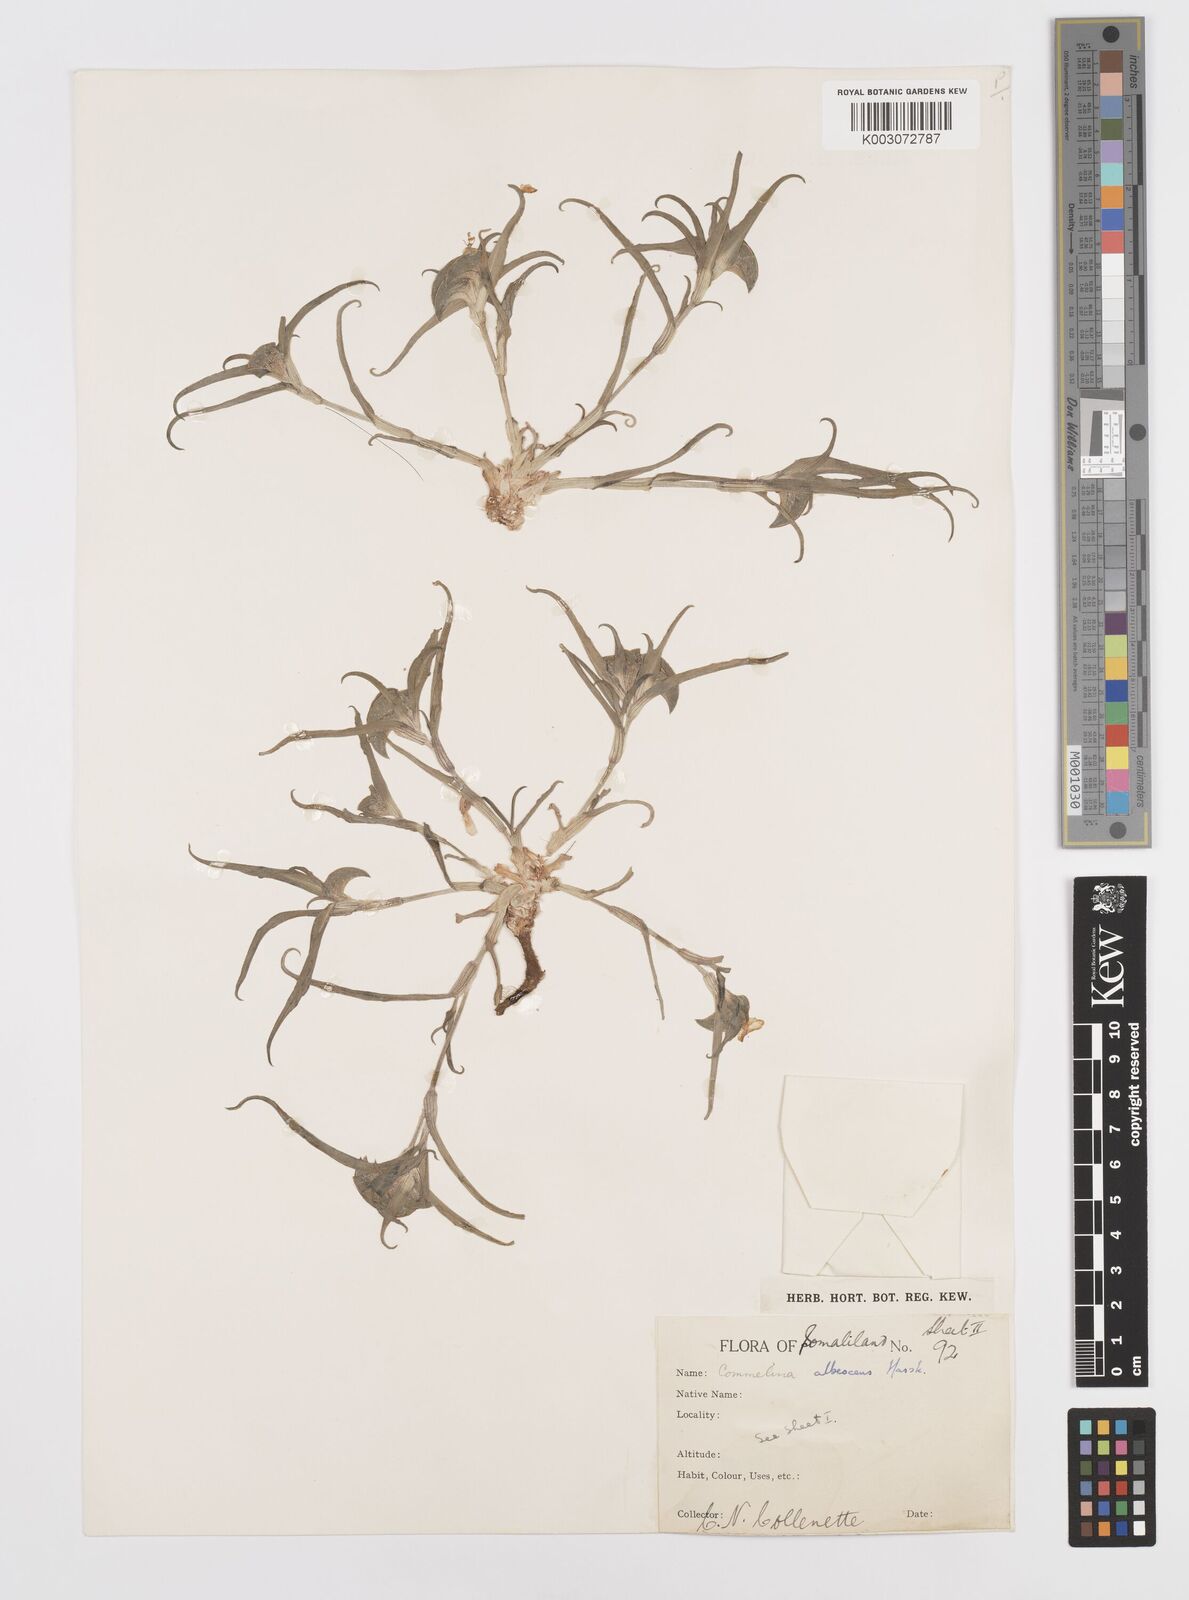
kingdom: Plantae
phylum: Tracheophyta
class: Liliopsida
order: Commelinales
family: Commelinaceae
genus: Commelina
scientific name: Commelina albescens
